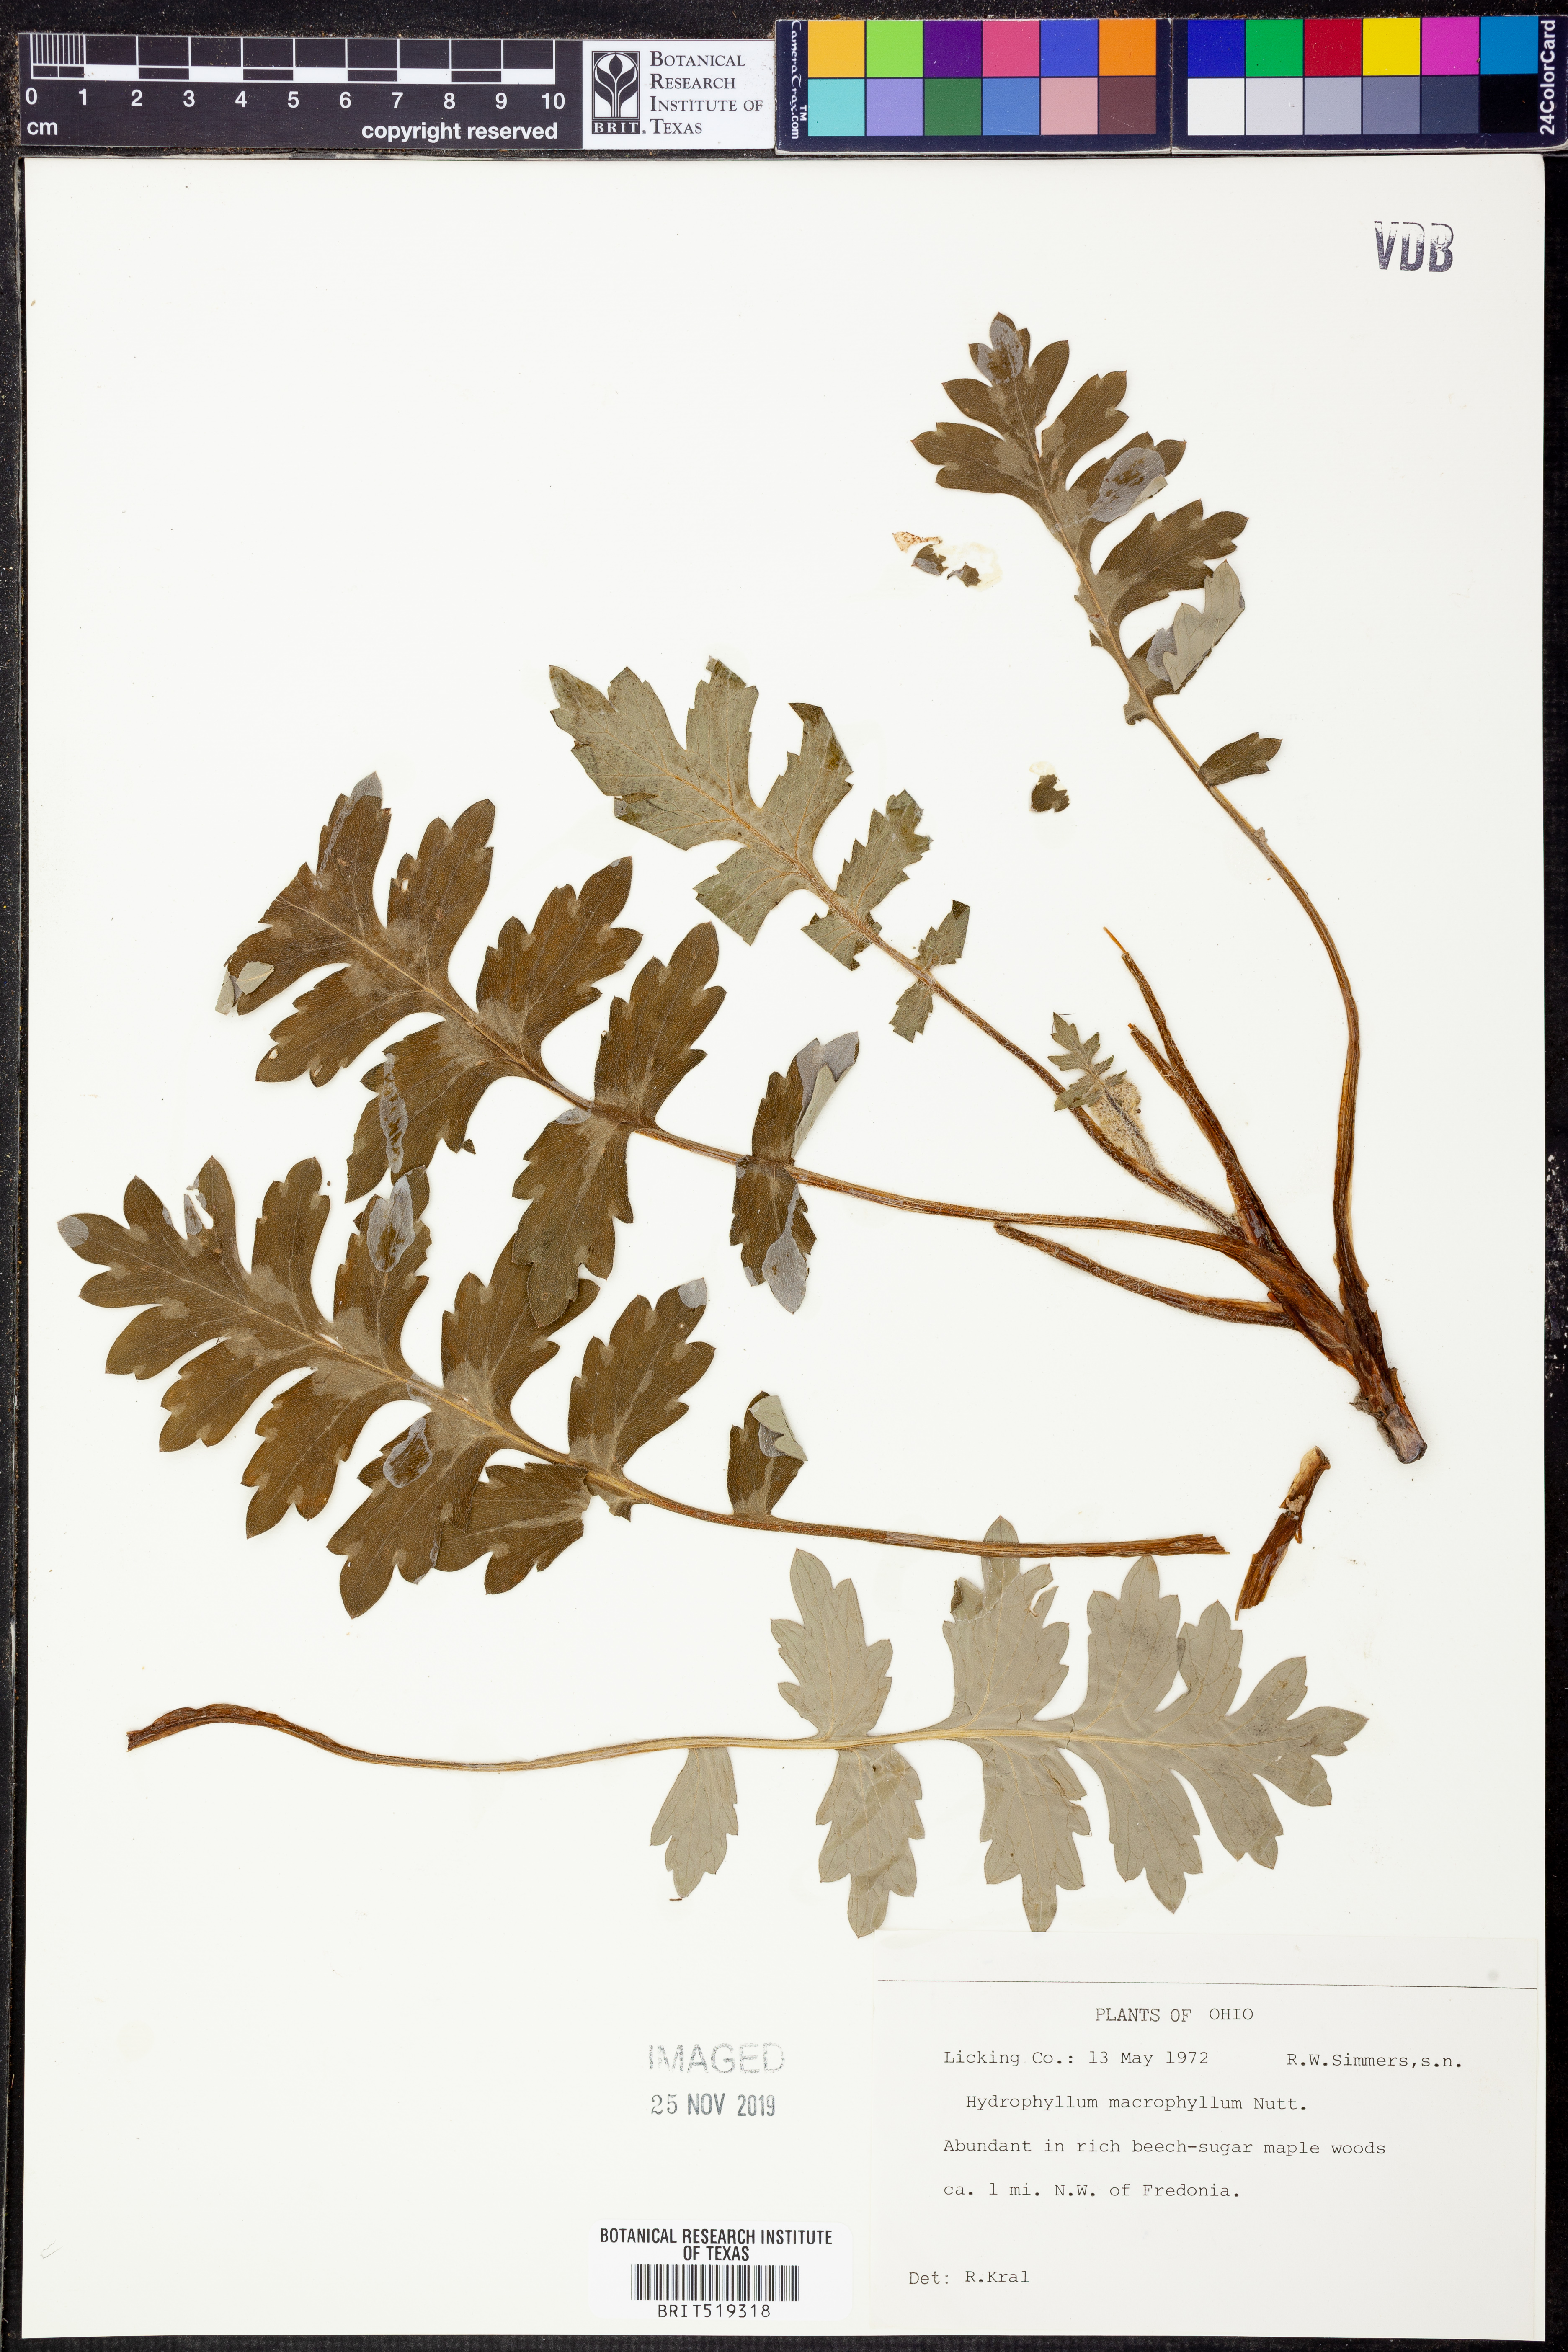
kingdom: Plantae
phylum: Tracheophyta
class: Magnoliopsida
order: Boraginales
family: Hydrophyllaceae
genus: Hydrophyllum
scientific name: Hydrophyllum macrophyllum
